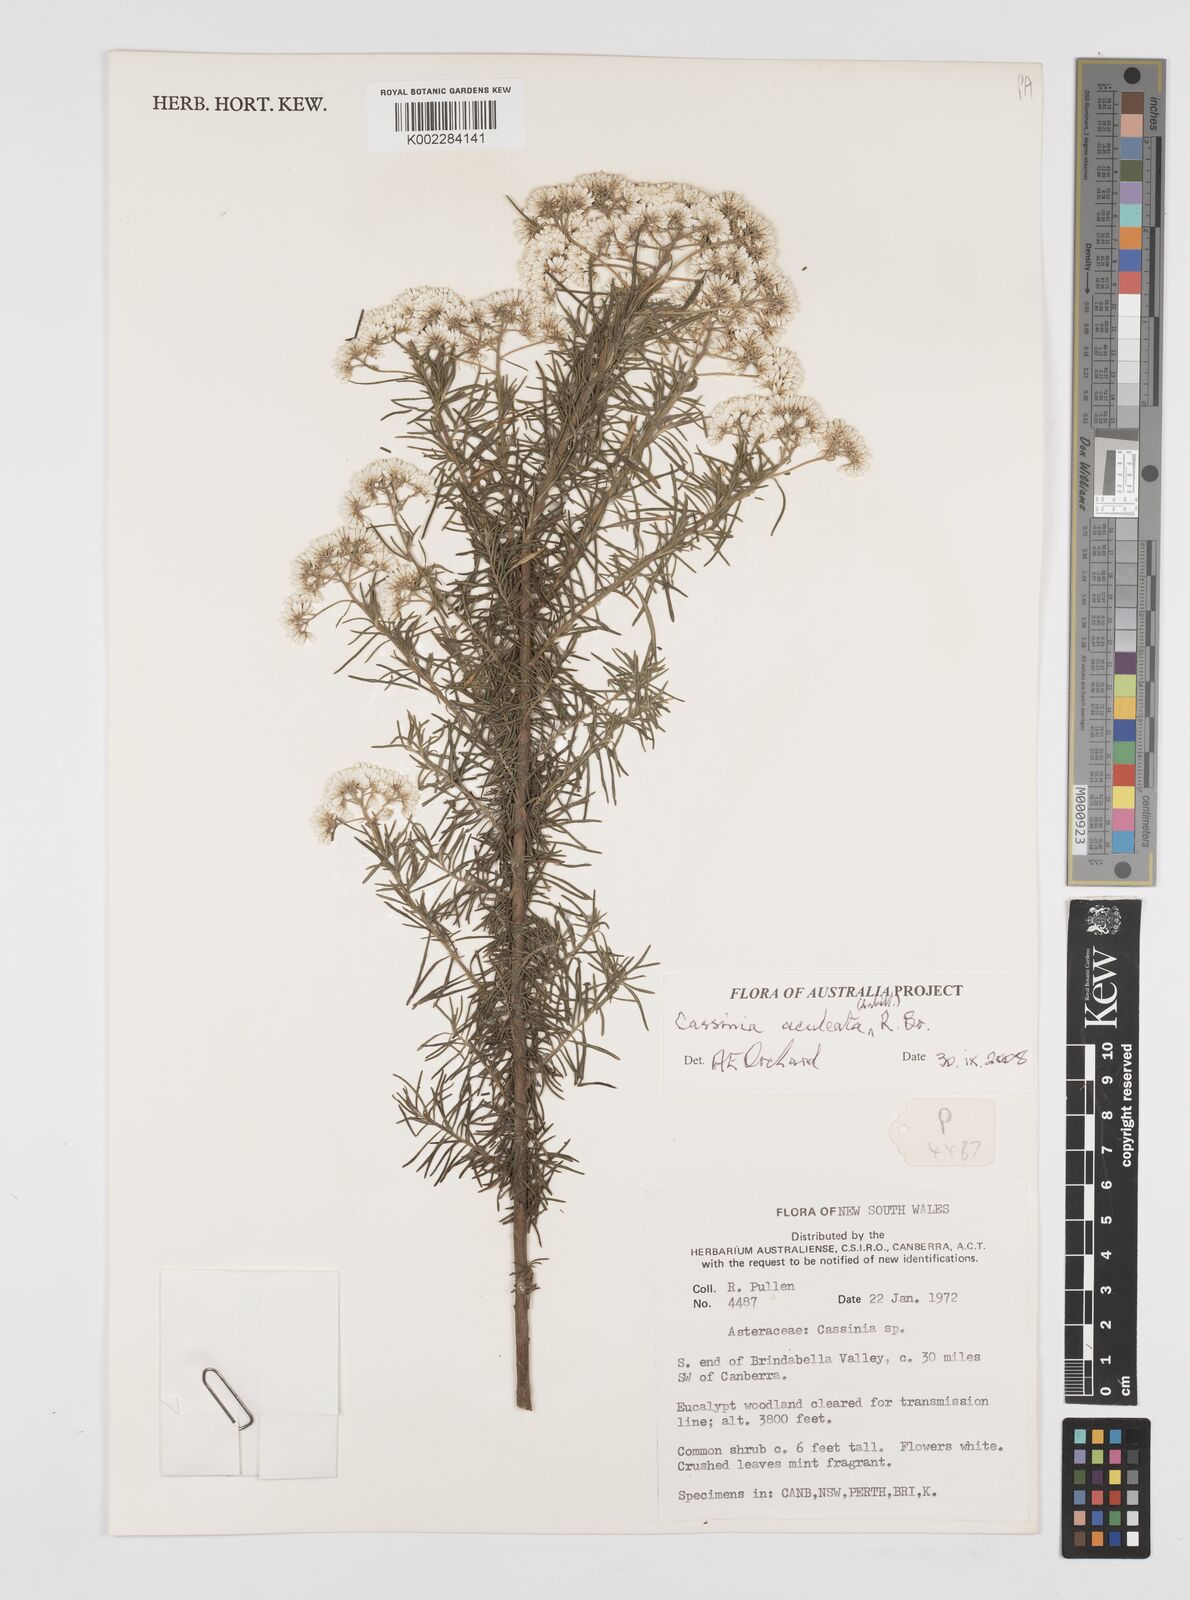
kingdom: Plantae
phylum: Tracheophyta
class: Magnoliopsida
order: Asterales
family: Asteraceae
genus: Cassinia
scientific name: Cassinia aculeata
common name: Australian tauhinu
